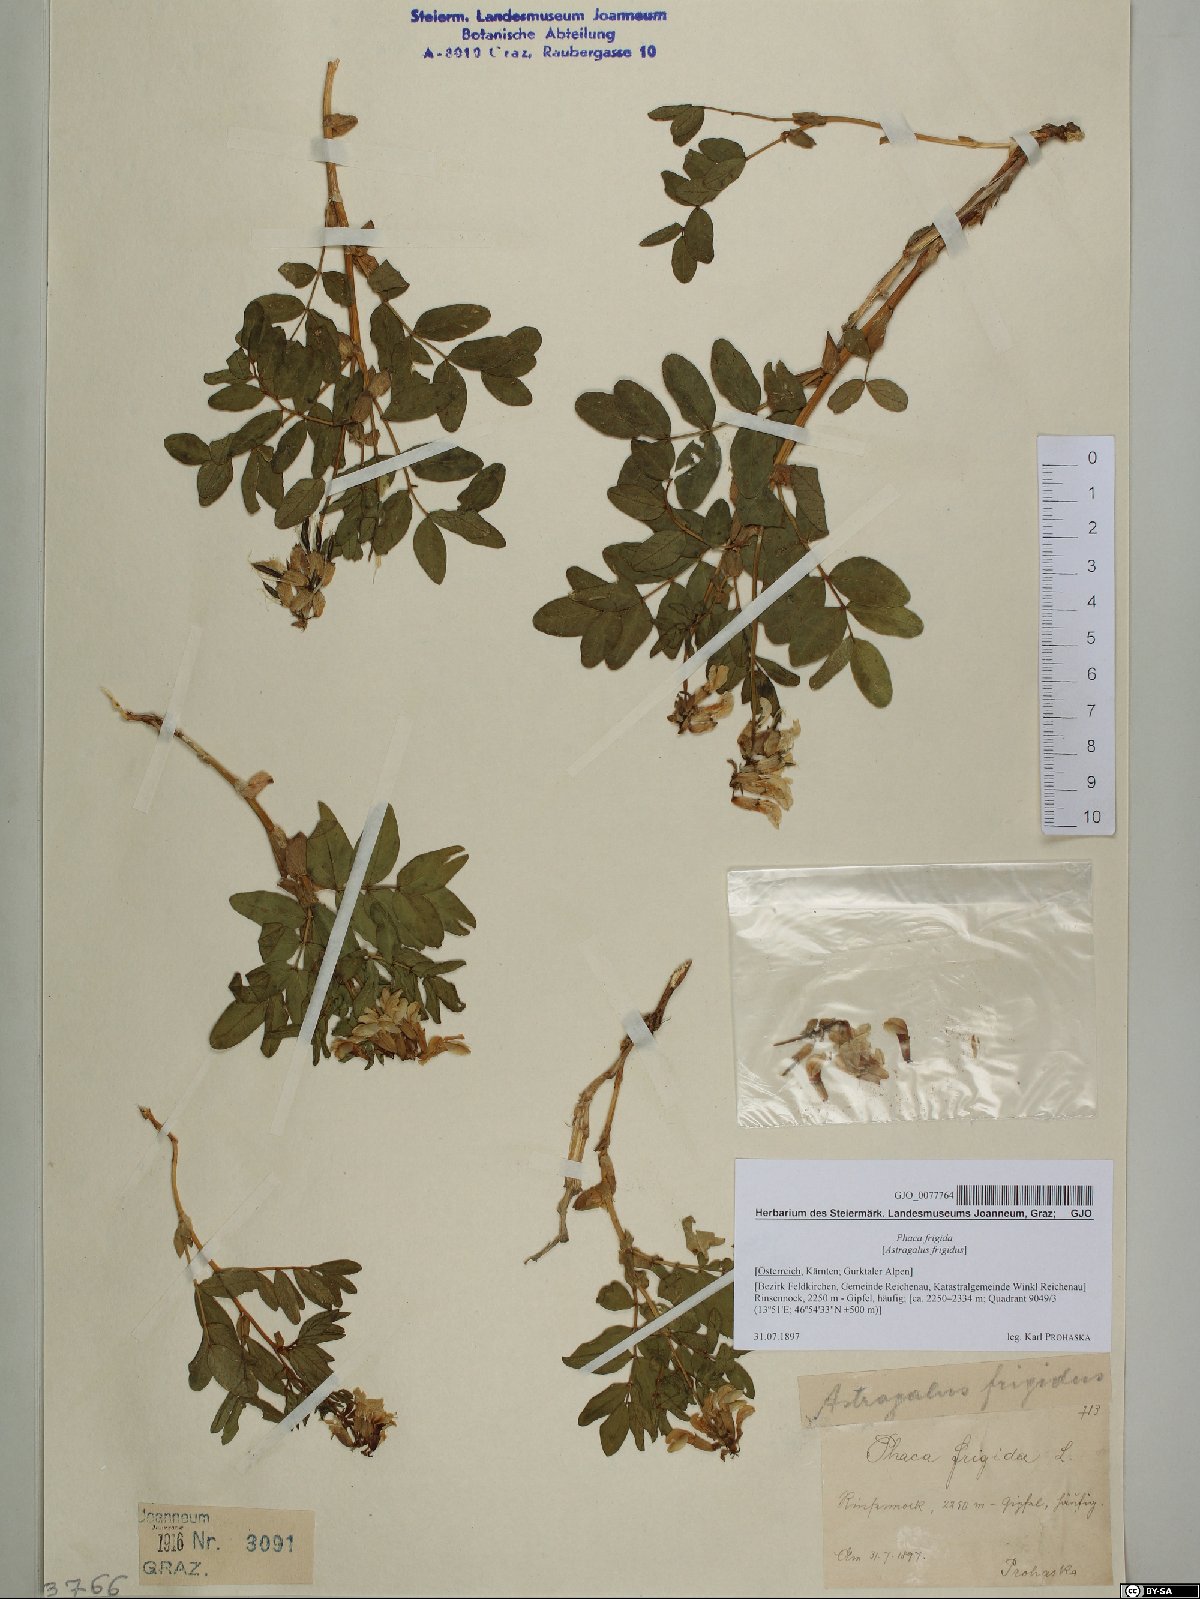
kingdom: Plantae
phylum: Tracheophyta
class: Magnoliopsida
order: Fabales
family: Fabaceae
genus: Astragalus
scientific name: Astragalus frigidus
